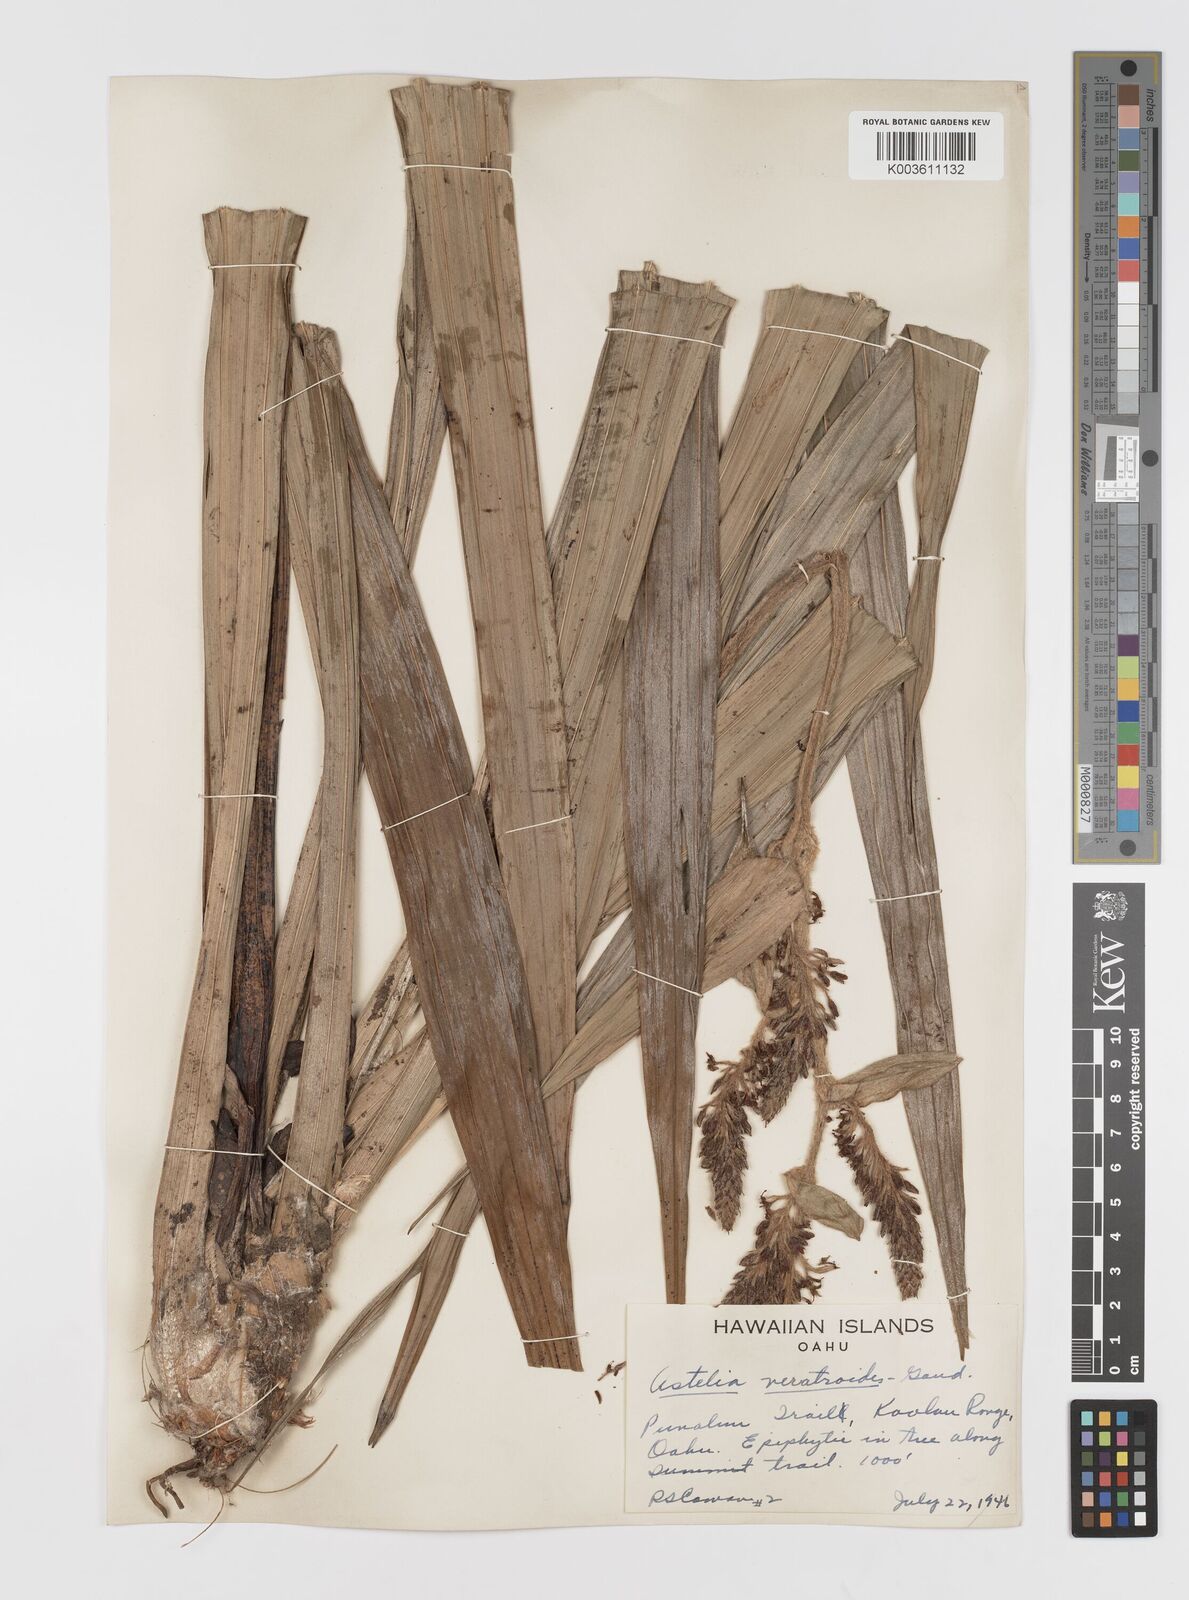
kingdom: Plantae
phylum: Tracheophyta
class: Liliopsida
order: Asparagales
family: Asteliaceae
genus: Astelia
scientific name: Astelia menziesiana
